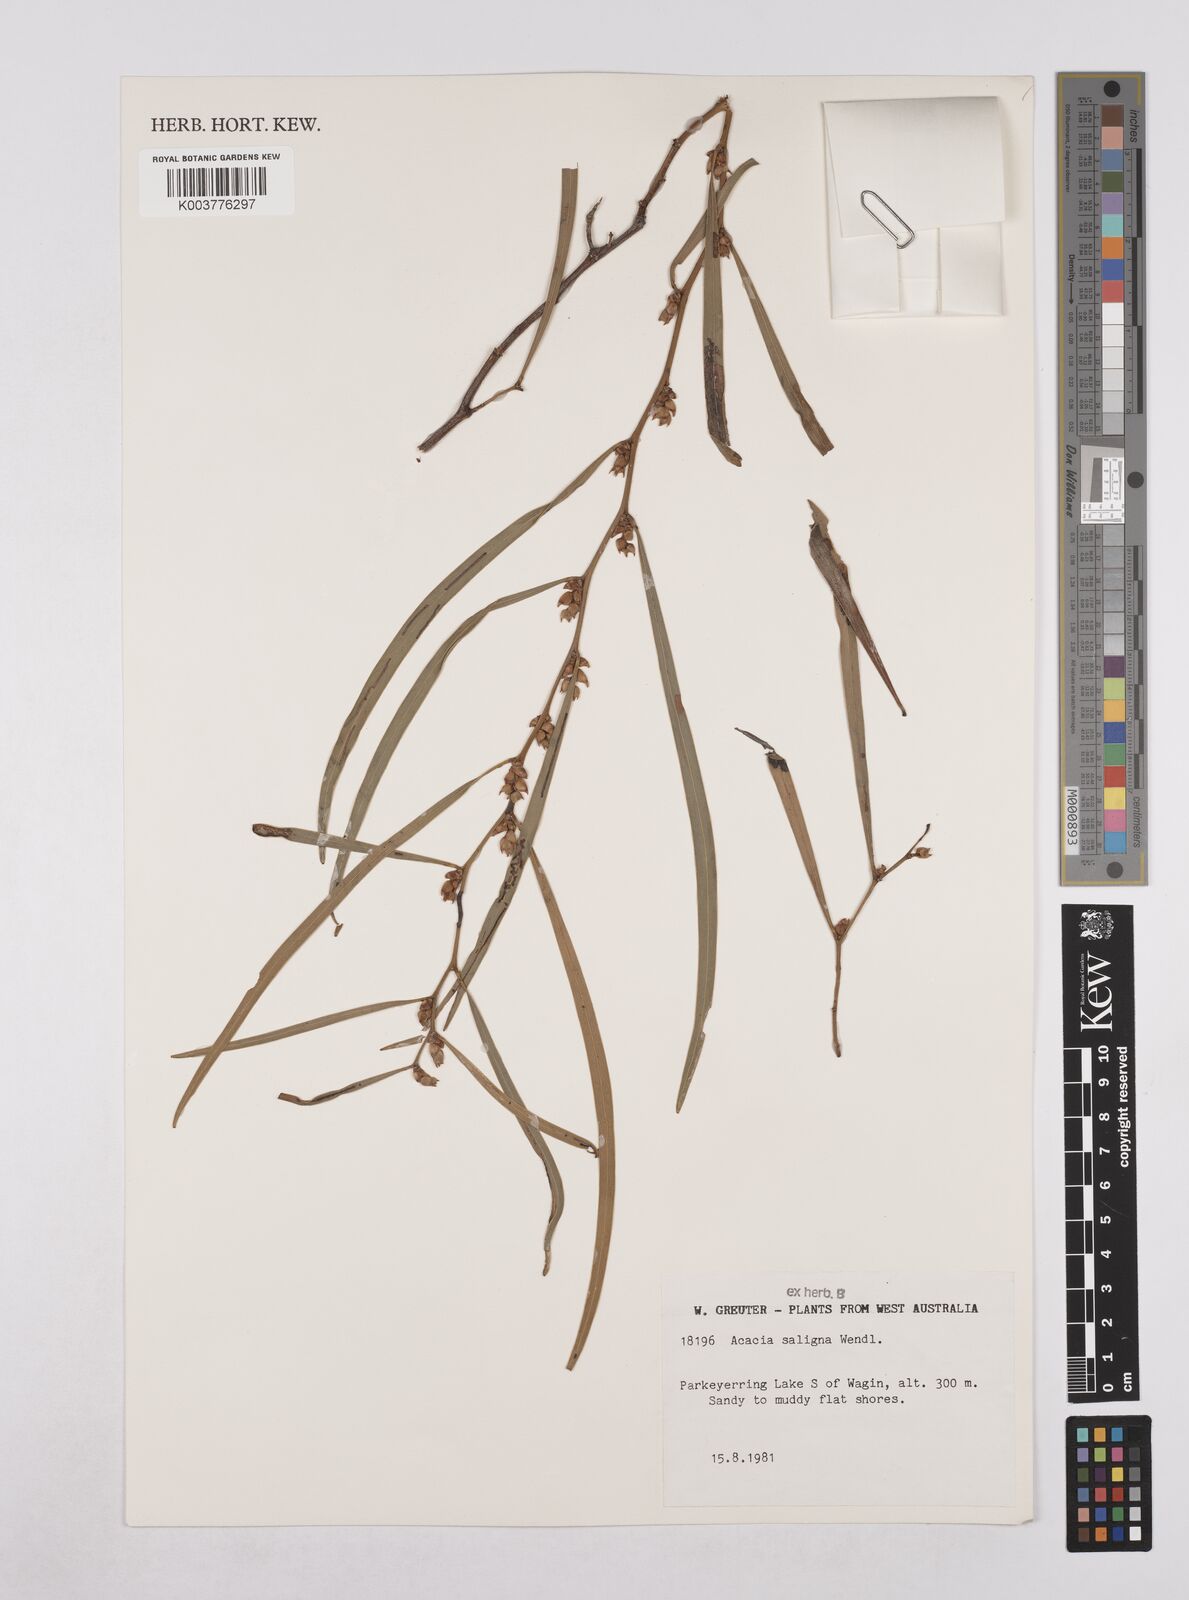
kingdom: Plantae
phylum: Tracheophyta
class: Magnoliopsida
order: Fabales
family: Fabaceae
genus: Acacia
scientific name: Acacia saligna
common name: Orange wattle
